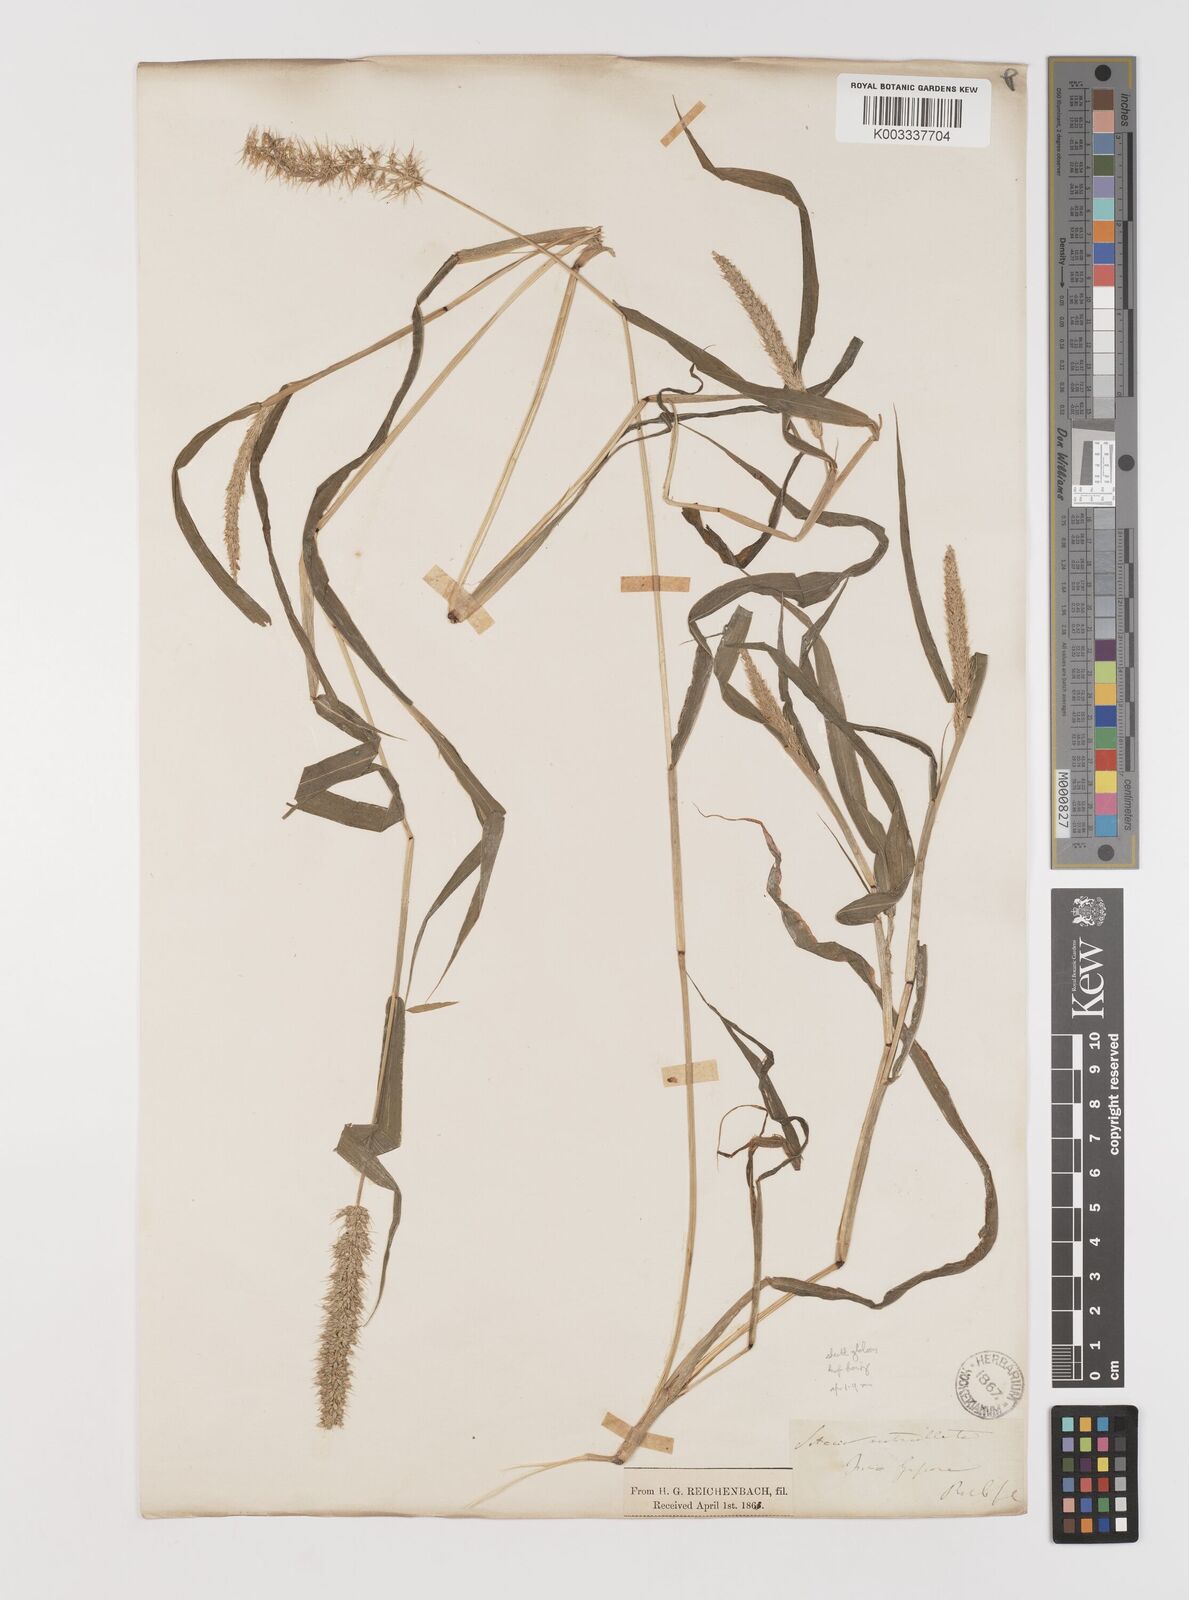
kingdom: Plantae
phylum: Tracheophyta
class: Liliopsida
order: Poales
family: Poaceae
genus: Setaria
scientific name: Setaria verticillata
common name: Hooked bristlegrass
